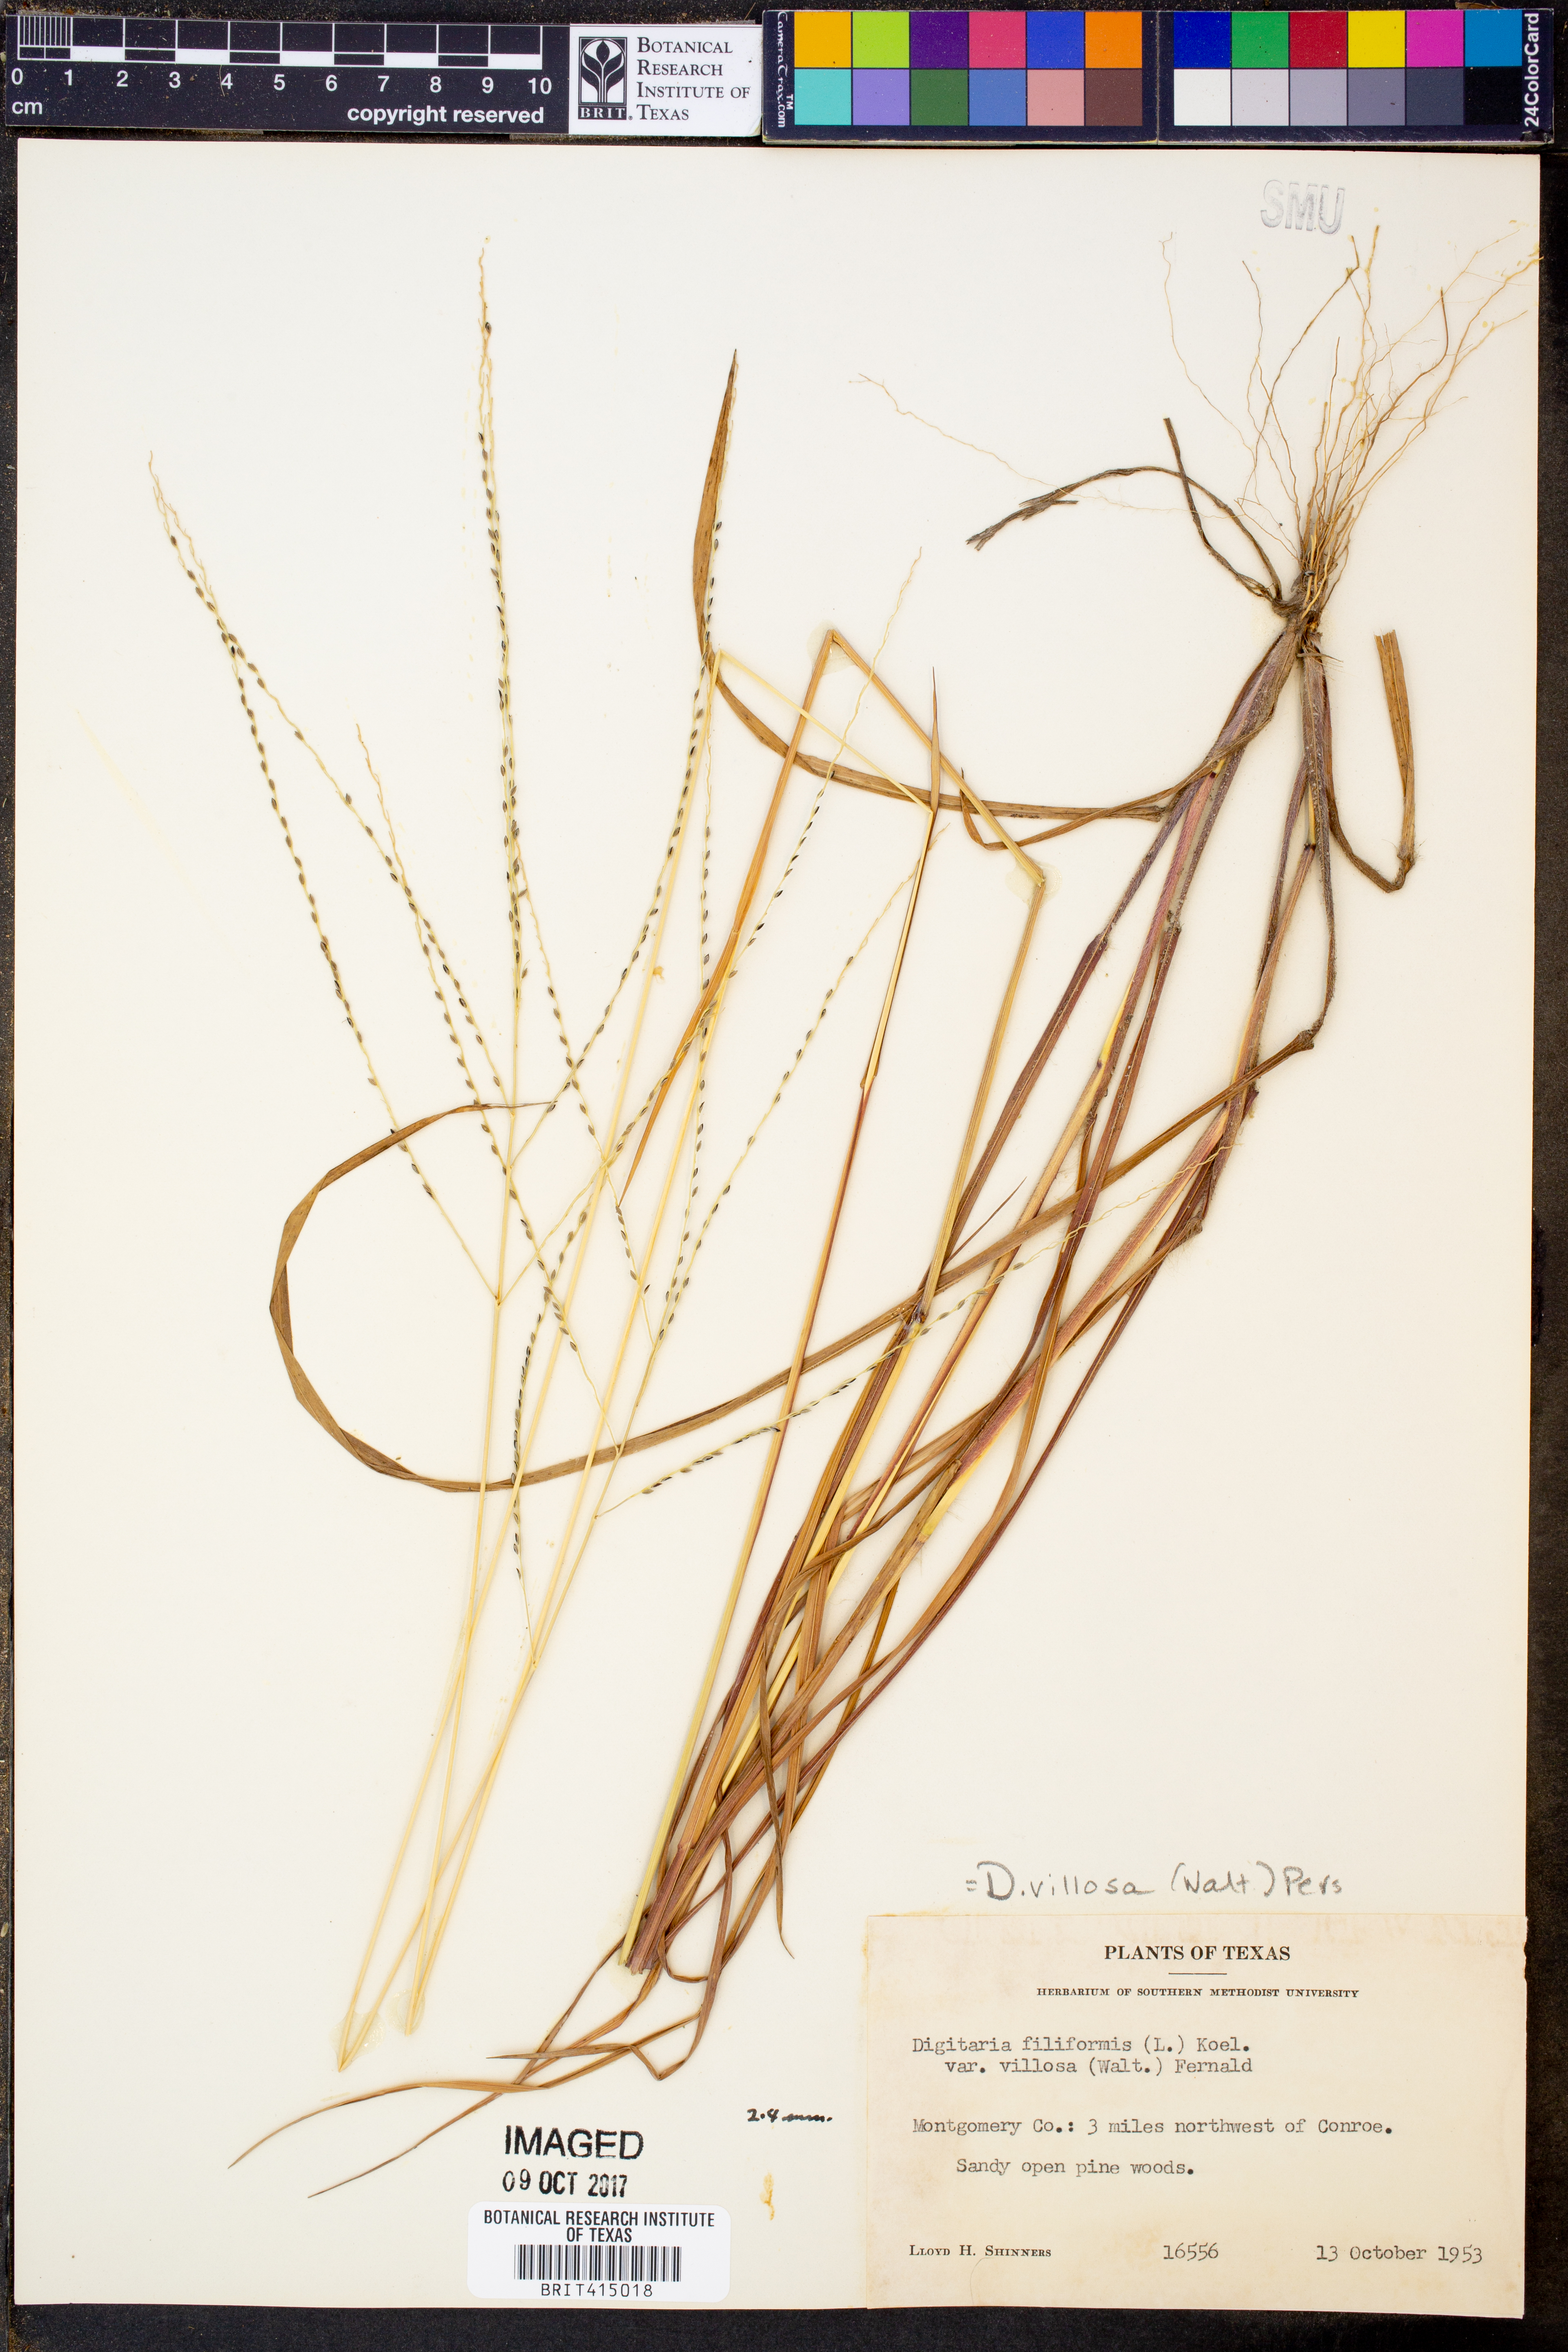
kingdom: Plantae
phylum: Tracheophyta
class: Liliopsida
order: Poales
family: Poaceae
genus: Digitaria
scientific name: Digitaria villosa
